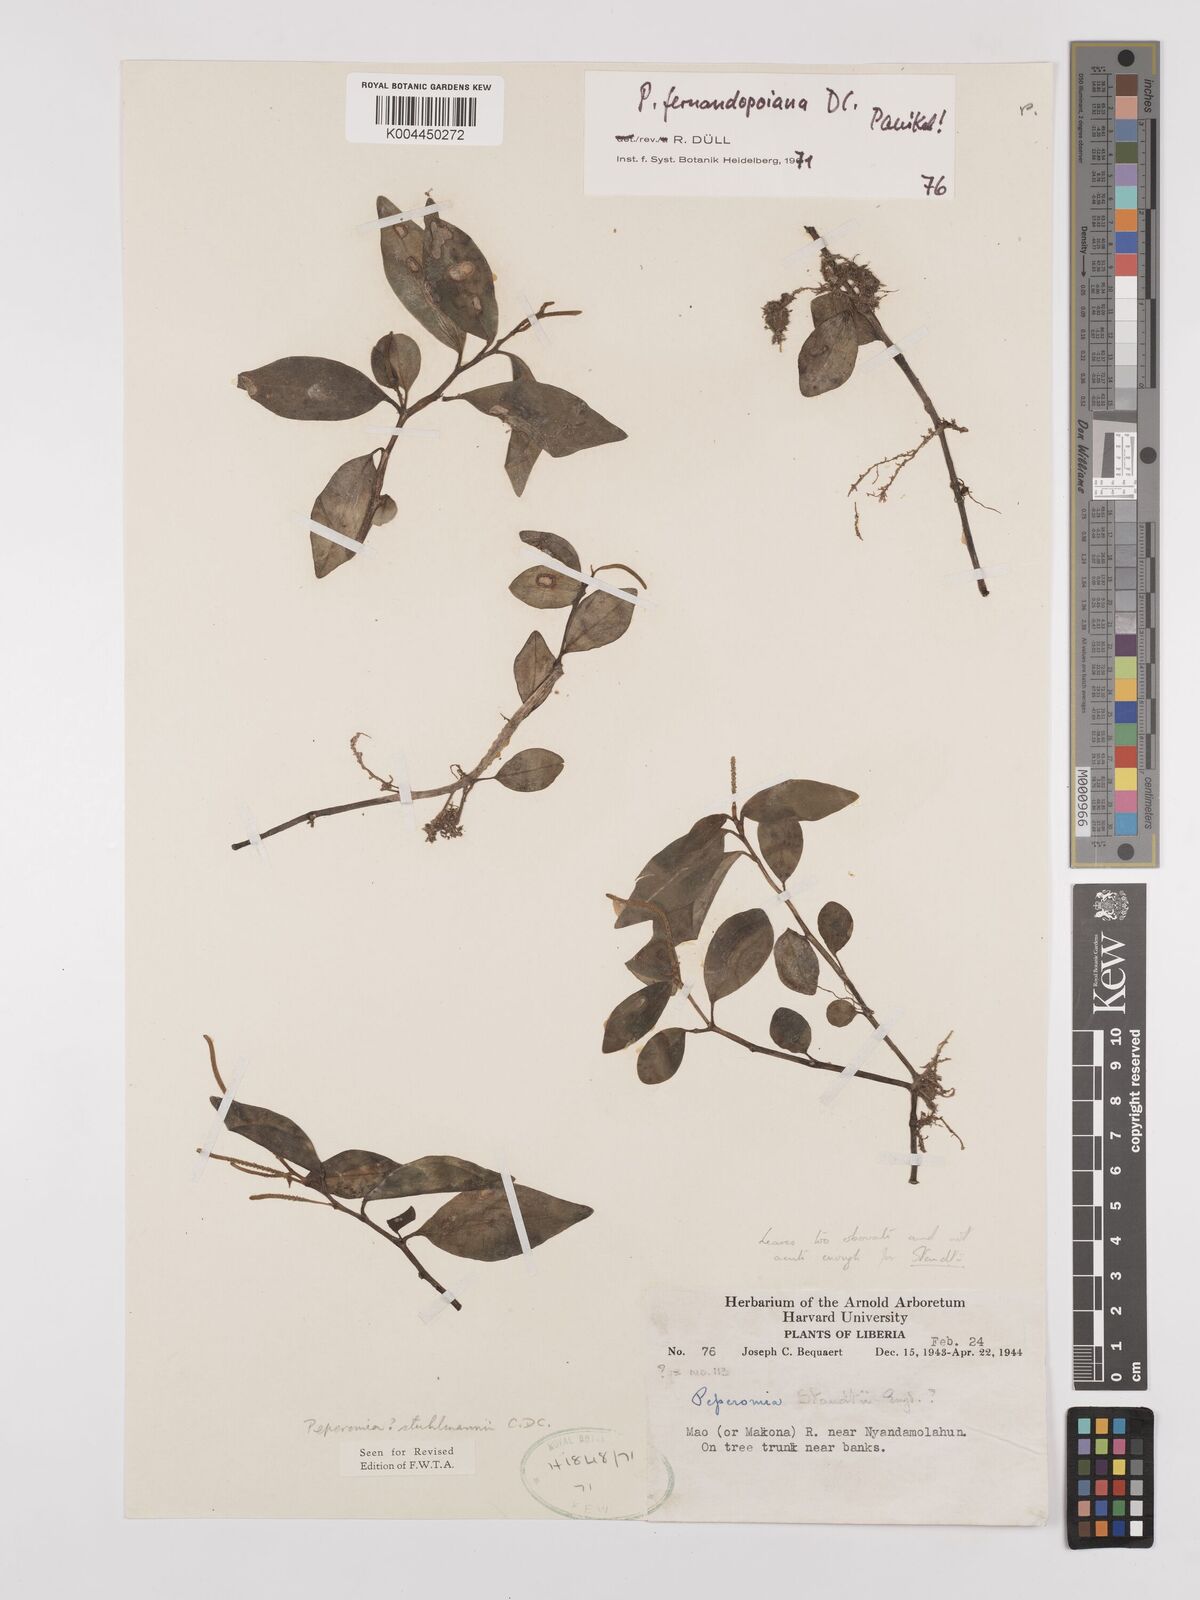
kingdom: Plantae
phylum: Tracheophyta
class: Magnoliopsida
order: Piperales
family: Piperaceae
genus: Peperomia
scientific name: Peperomia fernandeziana
